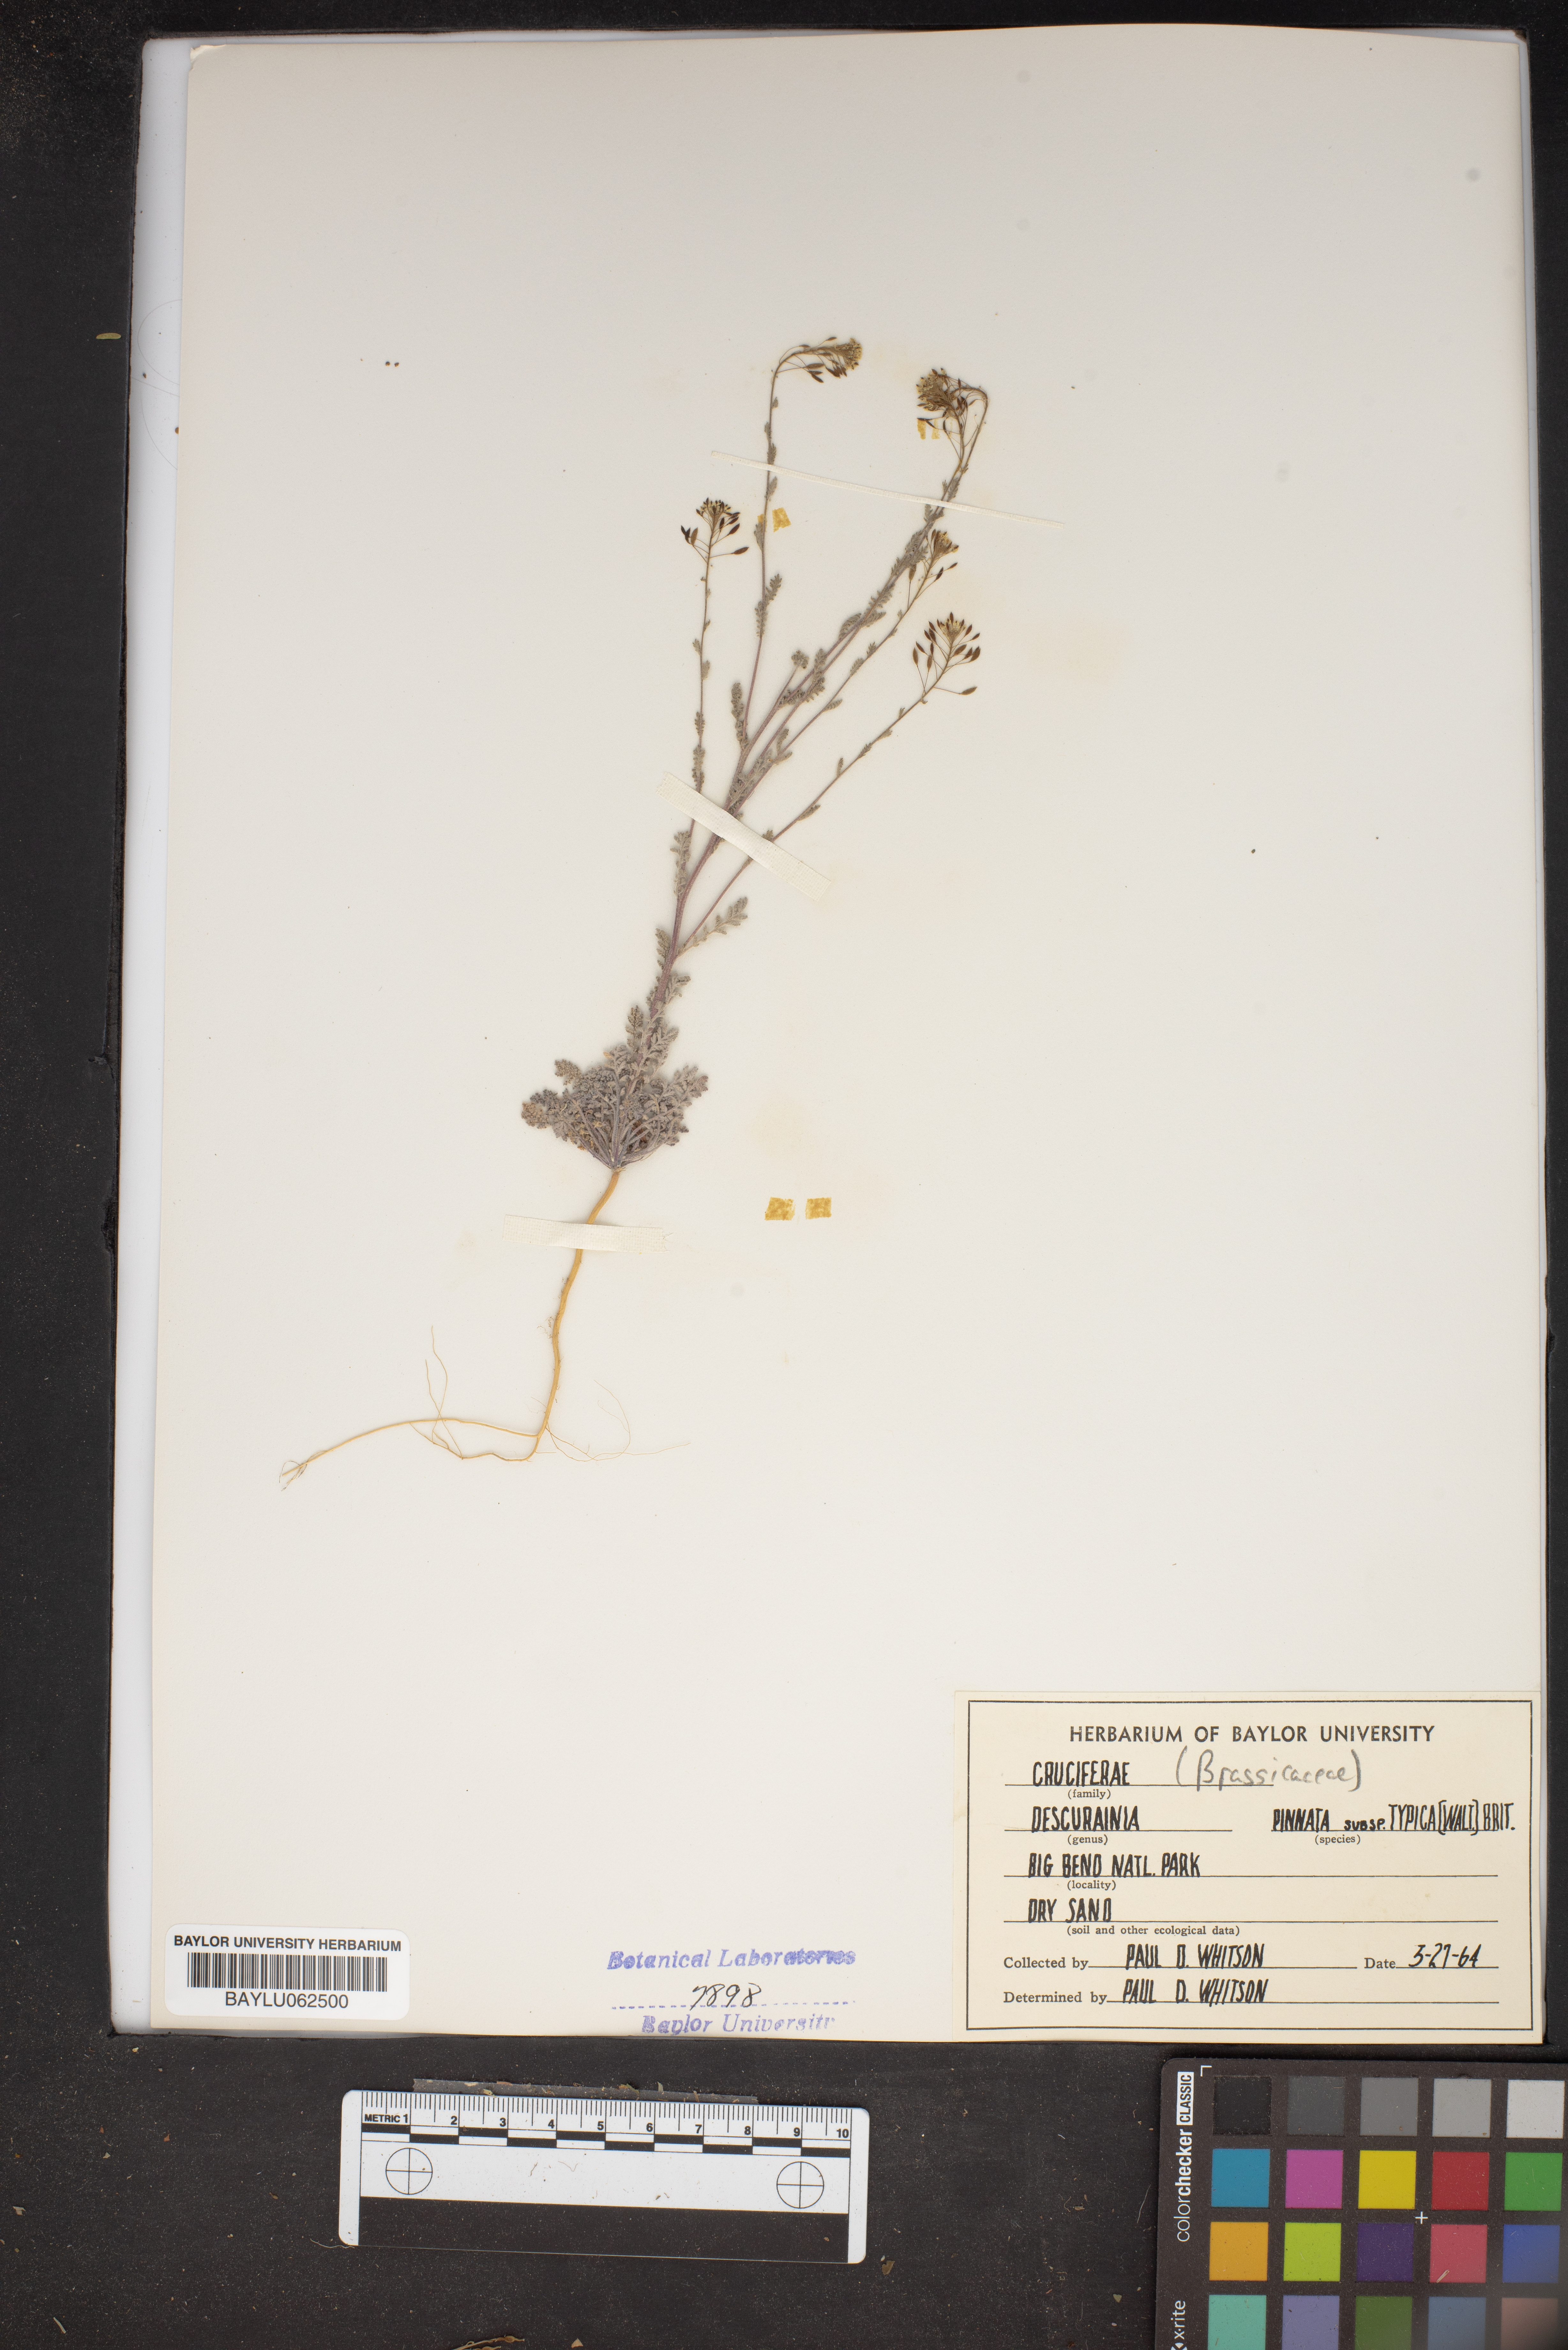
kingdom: Plantae
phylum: Tracheophyta
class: Magnoliopsida
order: Brassicales
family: Brassicaceae
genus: Descurainia
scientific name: Descurainia pinnata
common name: Western tansy mustard
